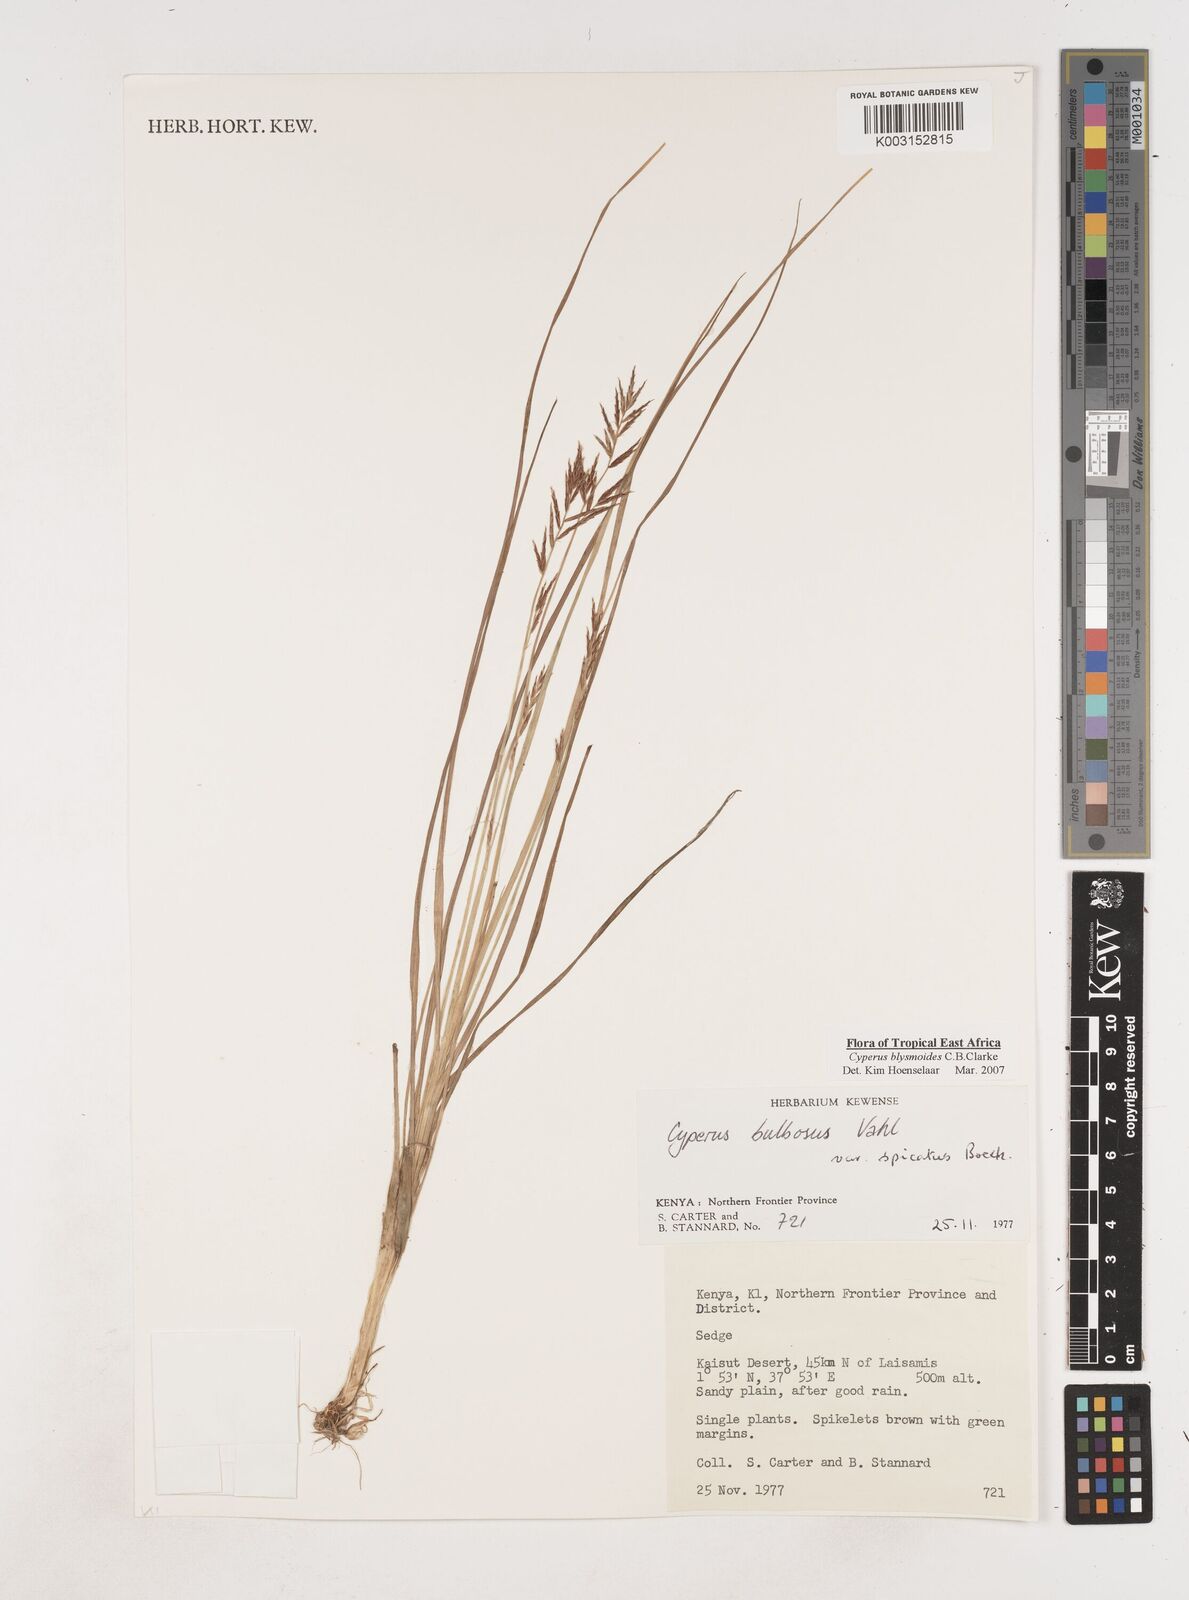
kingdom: Plantae
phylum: Tracheophyta
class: Liliopsida
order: Poales
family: Cyperaceae
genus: Cyperus
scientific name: Cyperus blysmoides
